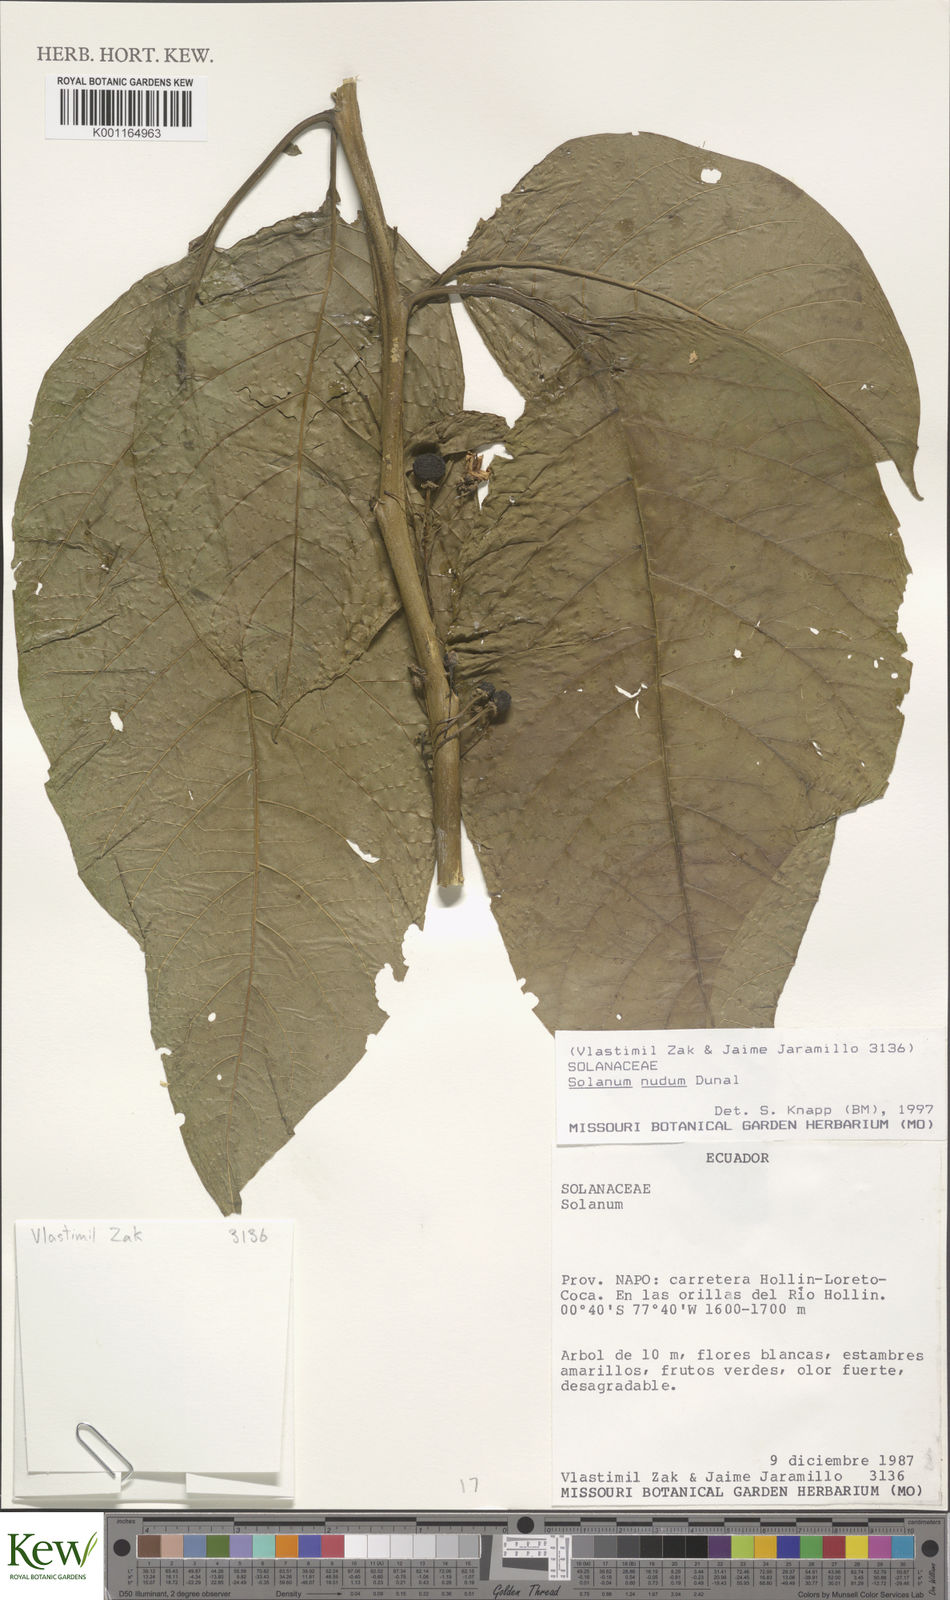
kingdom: Plantae
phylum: Tracheophyta
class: Magnoliopsida
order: Solanales
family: Solanaceae
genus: Solanum
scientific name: Solanum nudum
